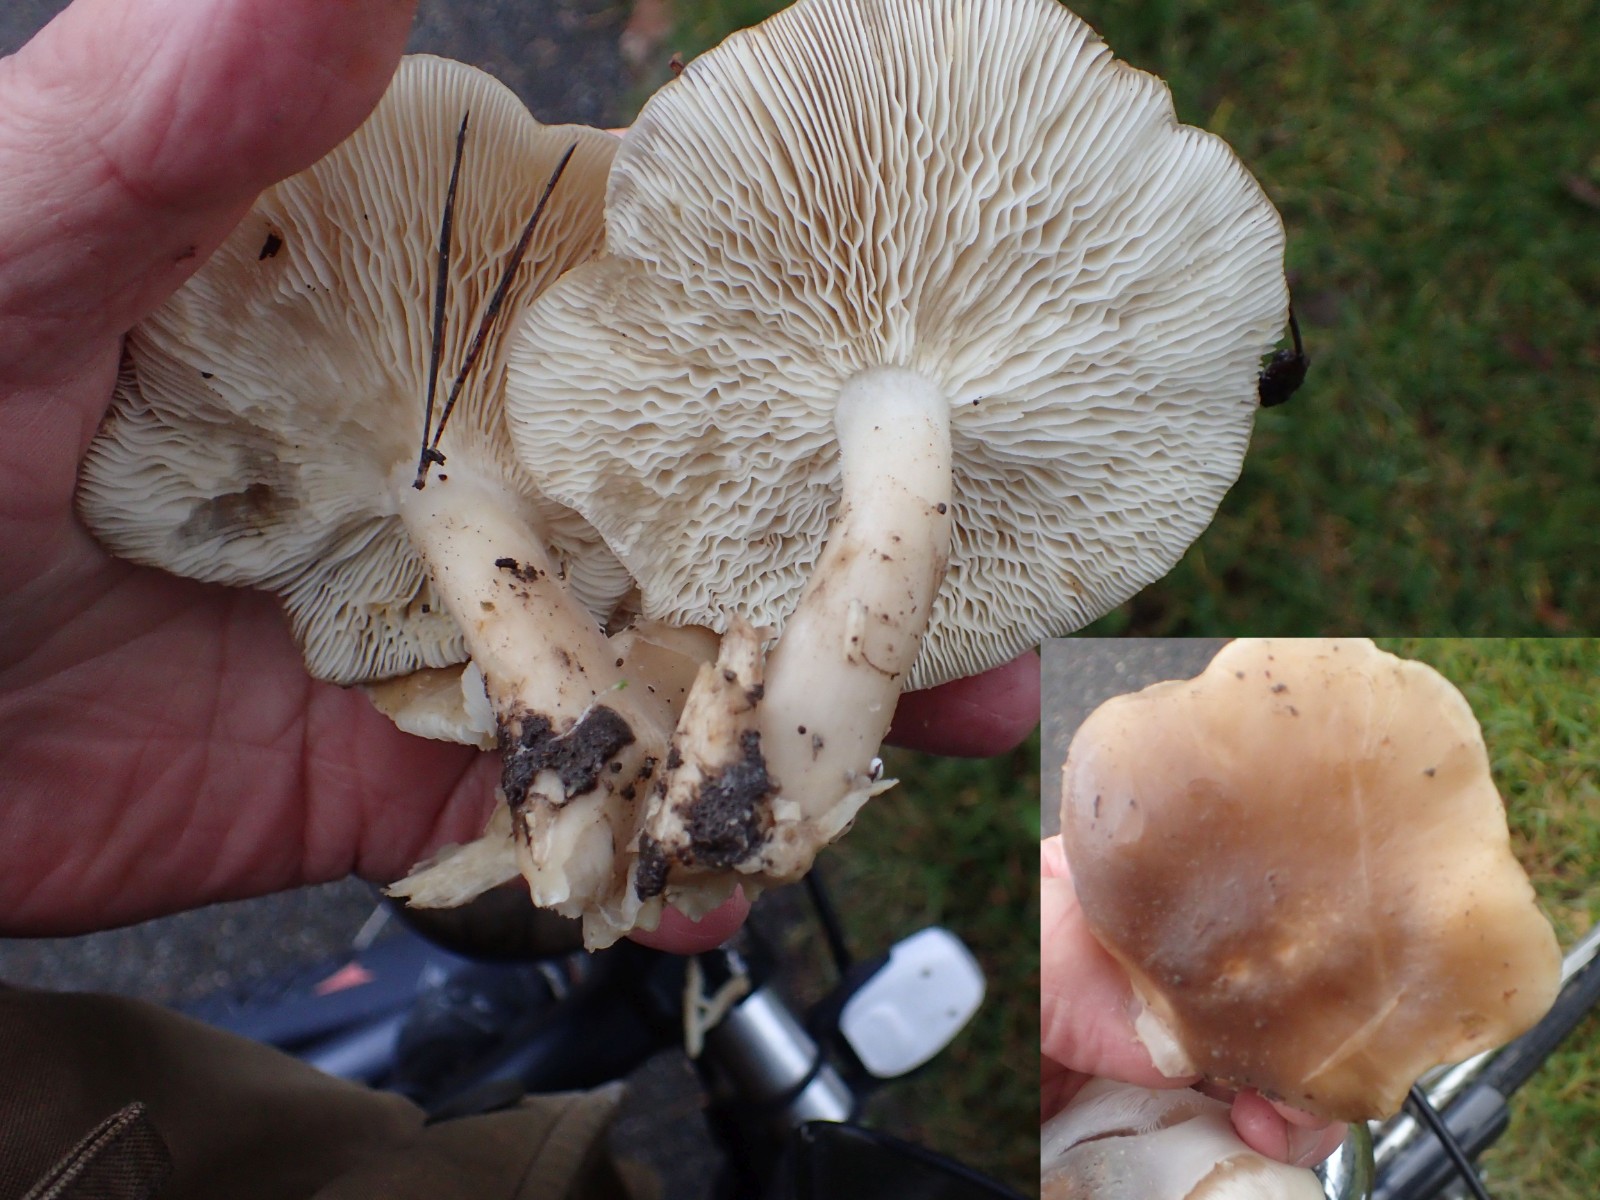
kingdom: Fungi
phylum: Basidiomycota
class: Agaricomycetes
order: Agaricales
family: Lyophyllaceae
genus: Lyophyllum
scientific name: Lyophyllum decastes
